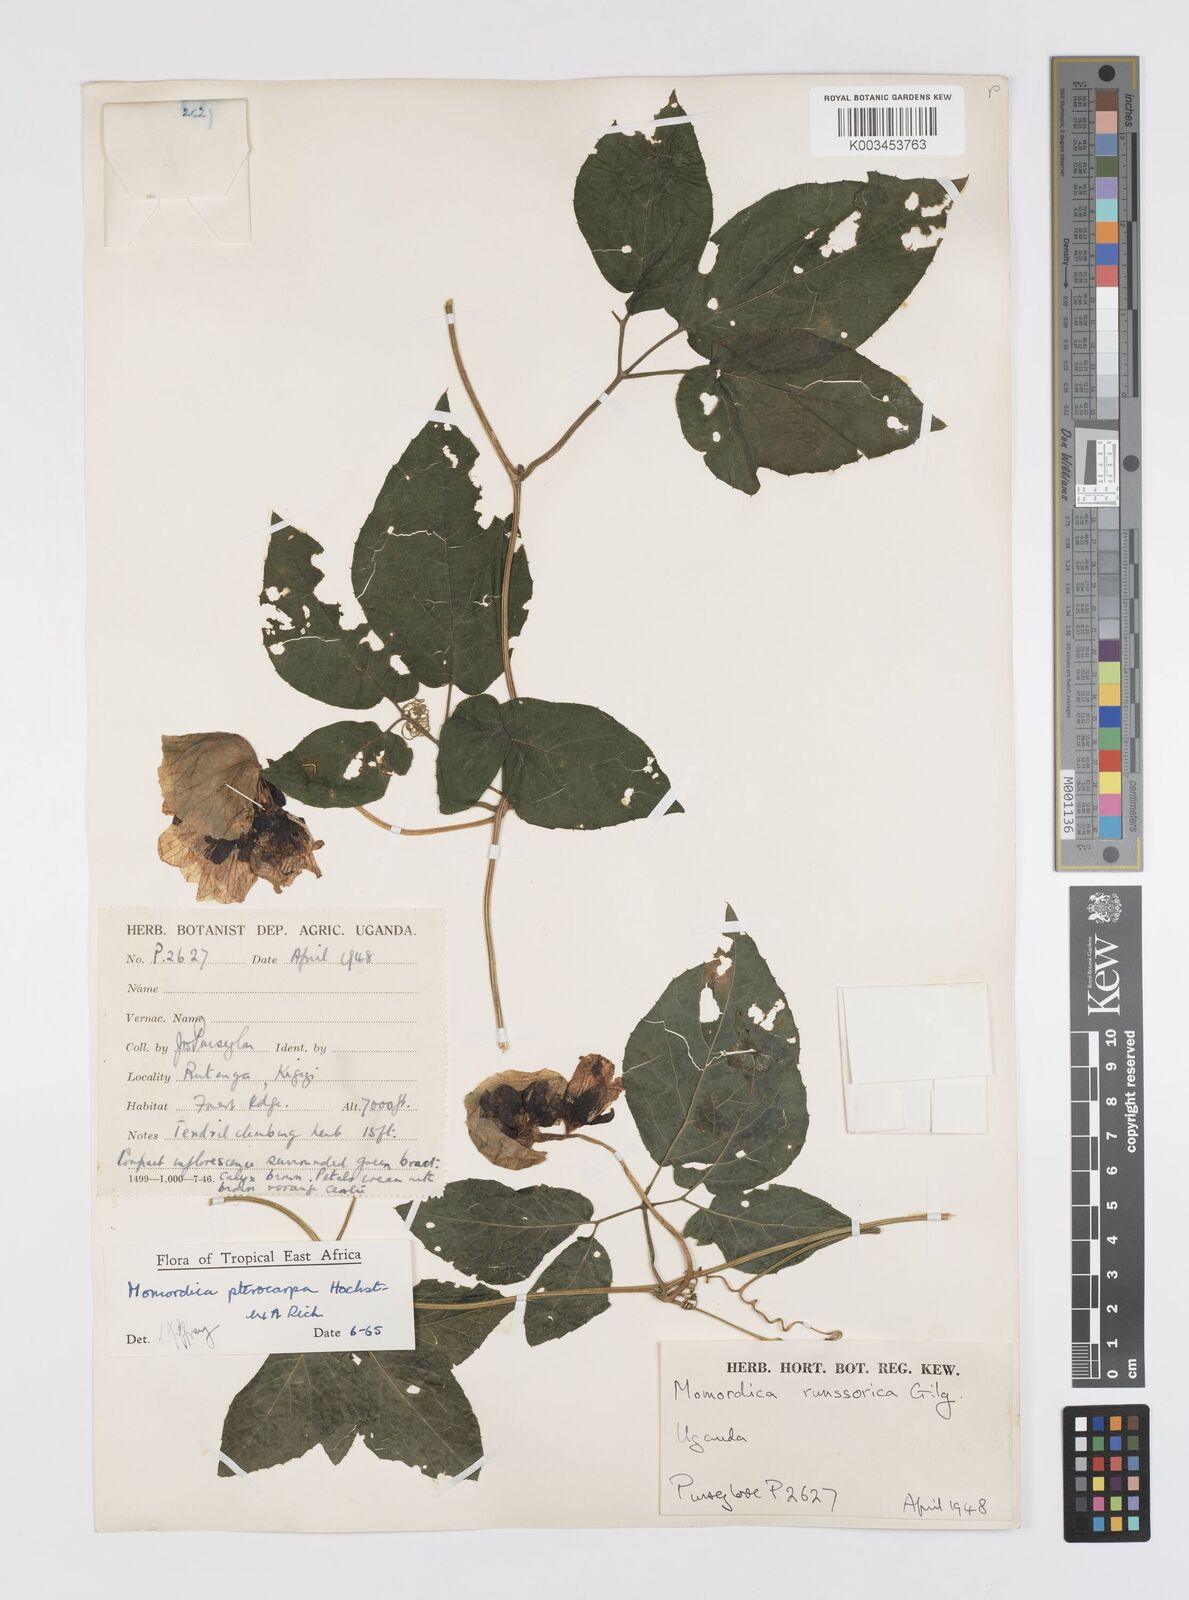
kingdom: Plantae
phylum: Tracheophyta
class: Magnoliopsida
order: Cucurbitales
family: Cucurbitaceae
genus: Momordica
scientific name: Momordica pterocarpa
